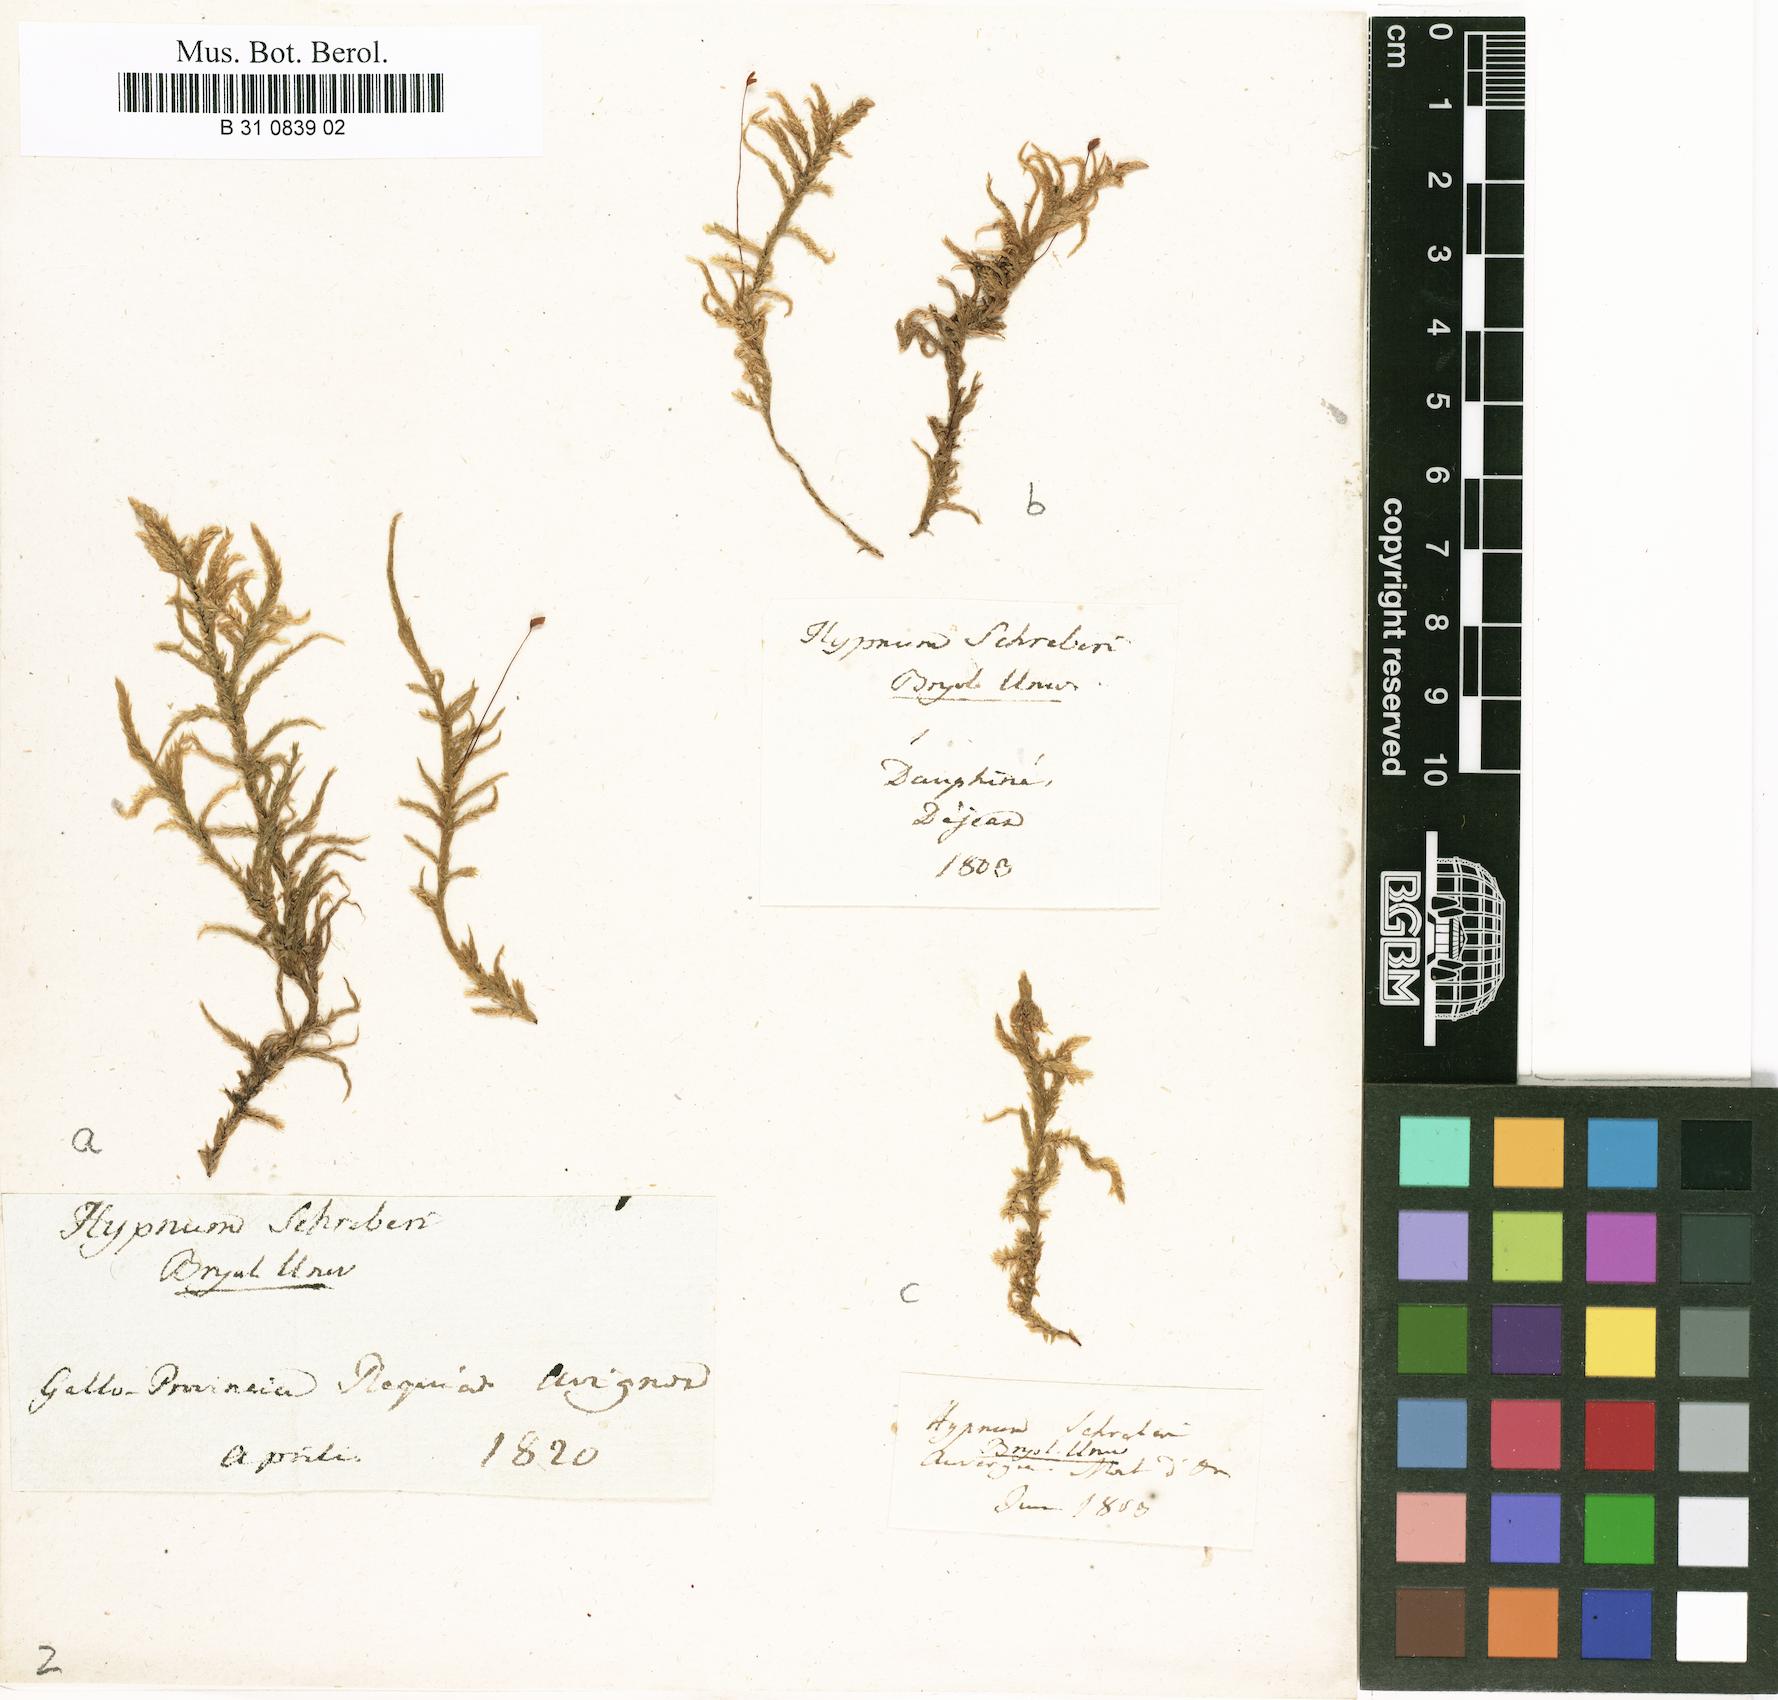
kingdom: Plantae
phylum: Bryophyta
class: Bryopsida
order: Hypnales
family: Hylocomiaceae
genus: Pleurozium
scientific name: Pleurozium schreberi
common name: Red-stemmed feather moss
